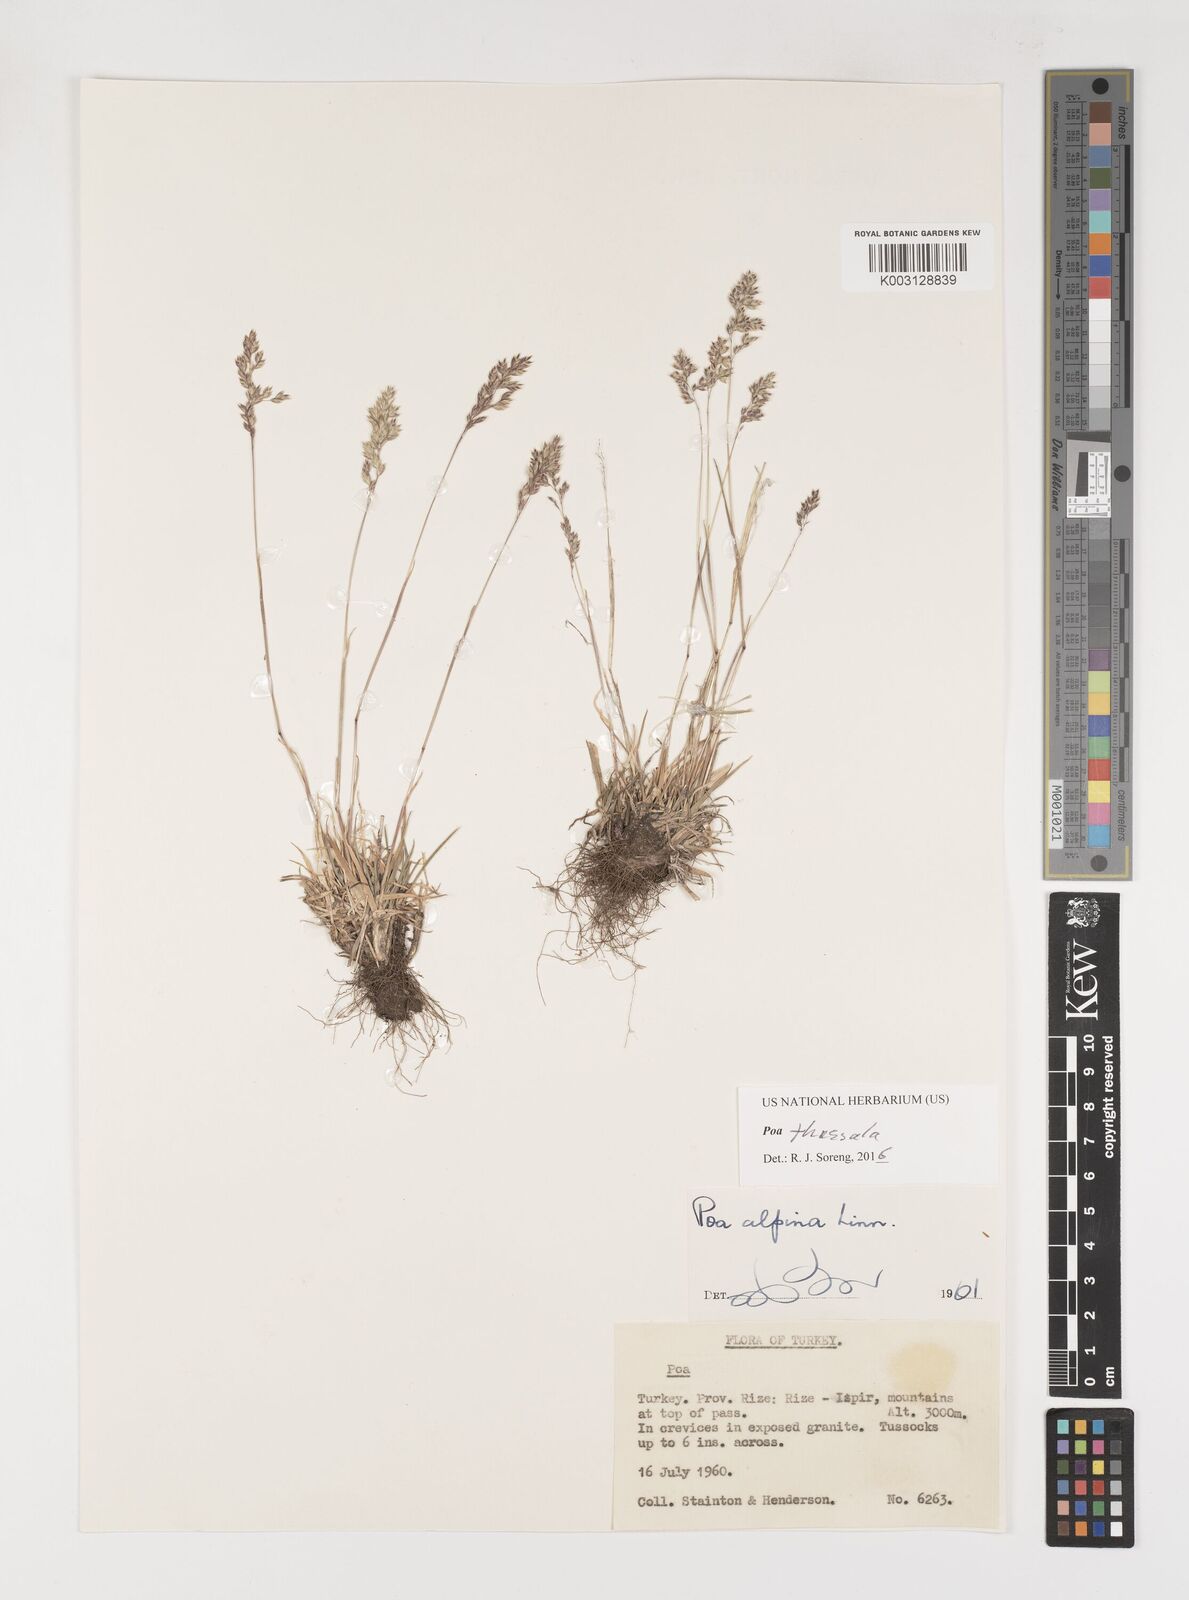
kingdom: Plantae
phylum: Tracheophyta
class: Liliopsida
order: Poales
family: Poaceae
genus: Poa
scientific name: Poa thessala
